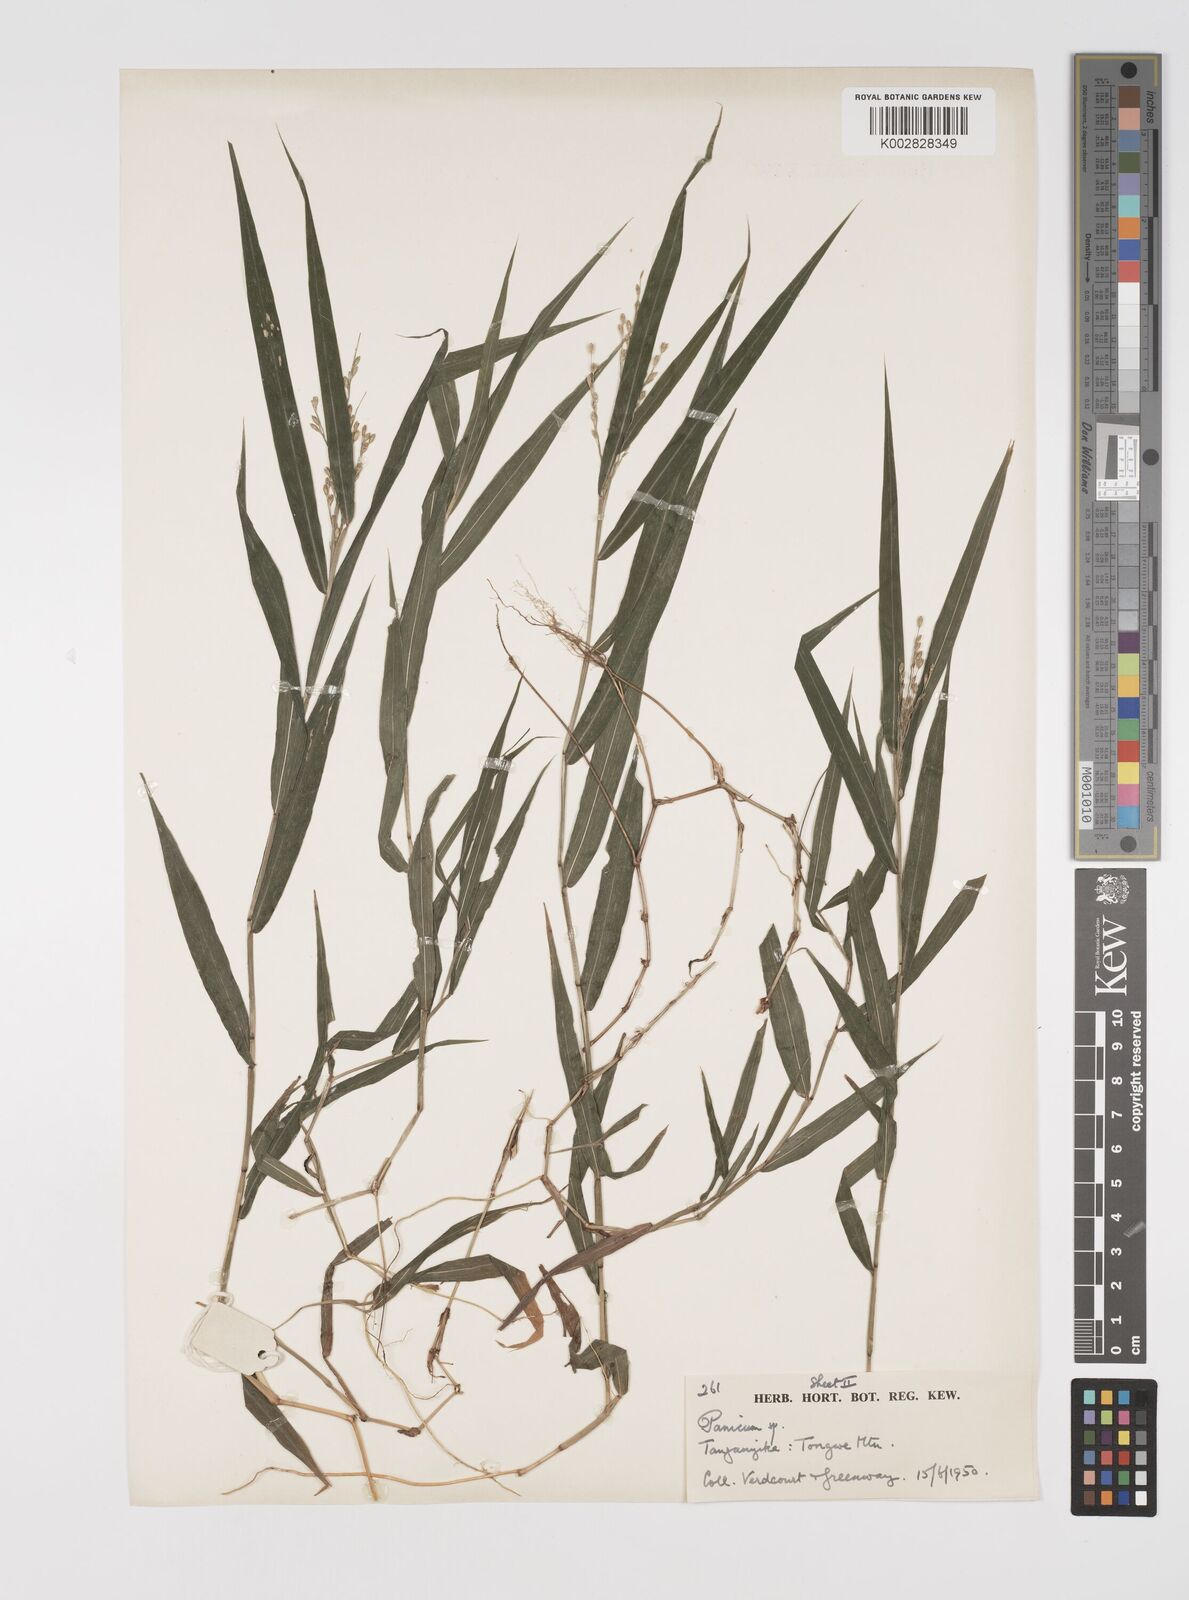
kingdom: Plantae
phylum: Tracheophyta
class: Liliopsida
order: Poales
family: Poaceae
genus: Acroceras
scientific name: Acroceras attenuatum
